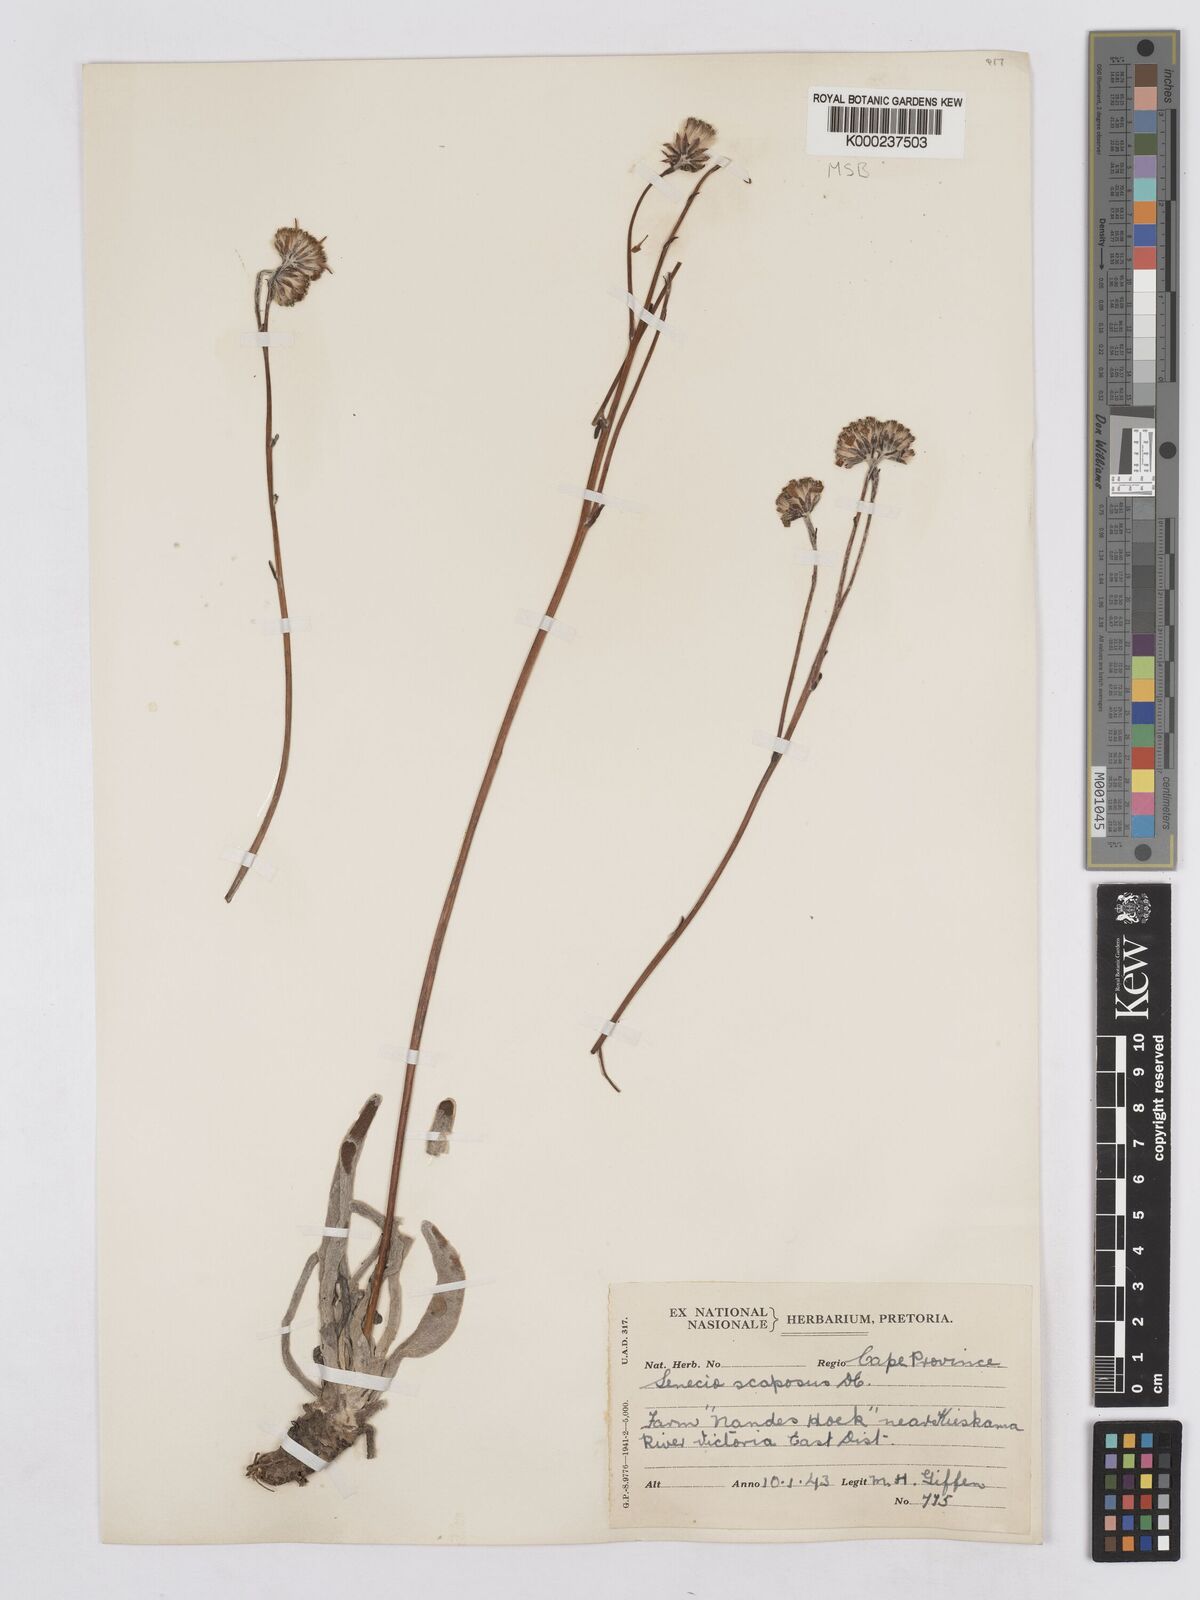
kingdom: Plantae
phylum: Tracheophyta
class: Magnoliopsida
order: Asterales
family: Asteraceae
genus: Caputia
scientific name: Caputia scaposa
